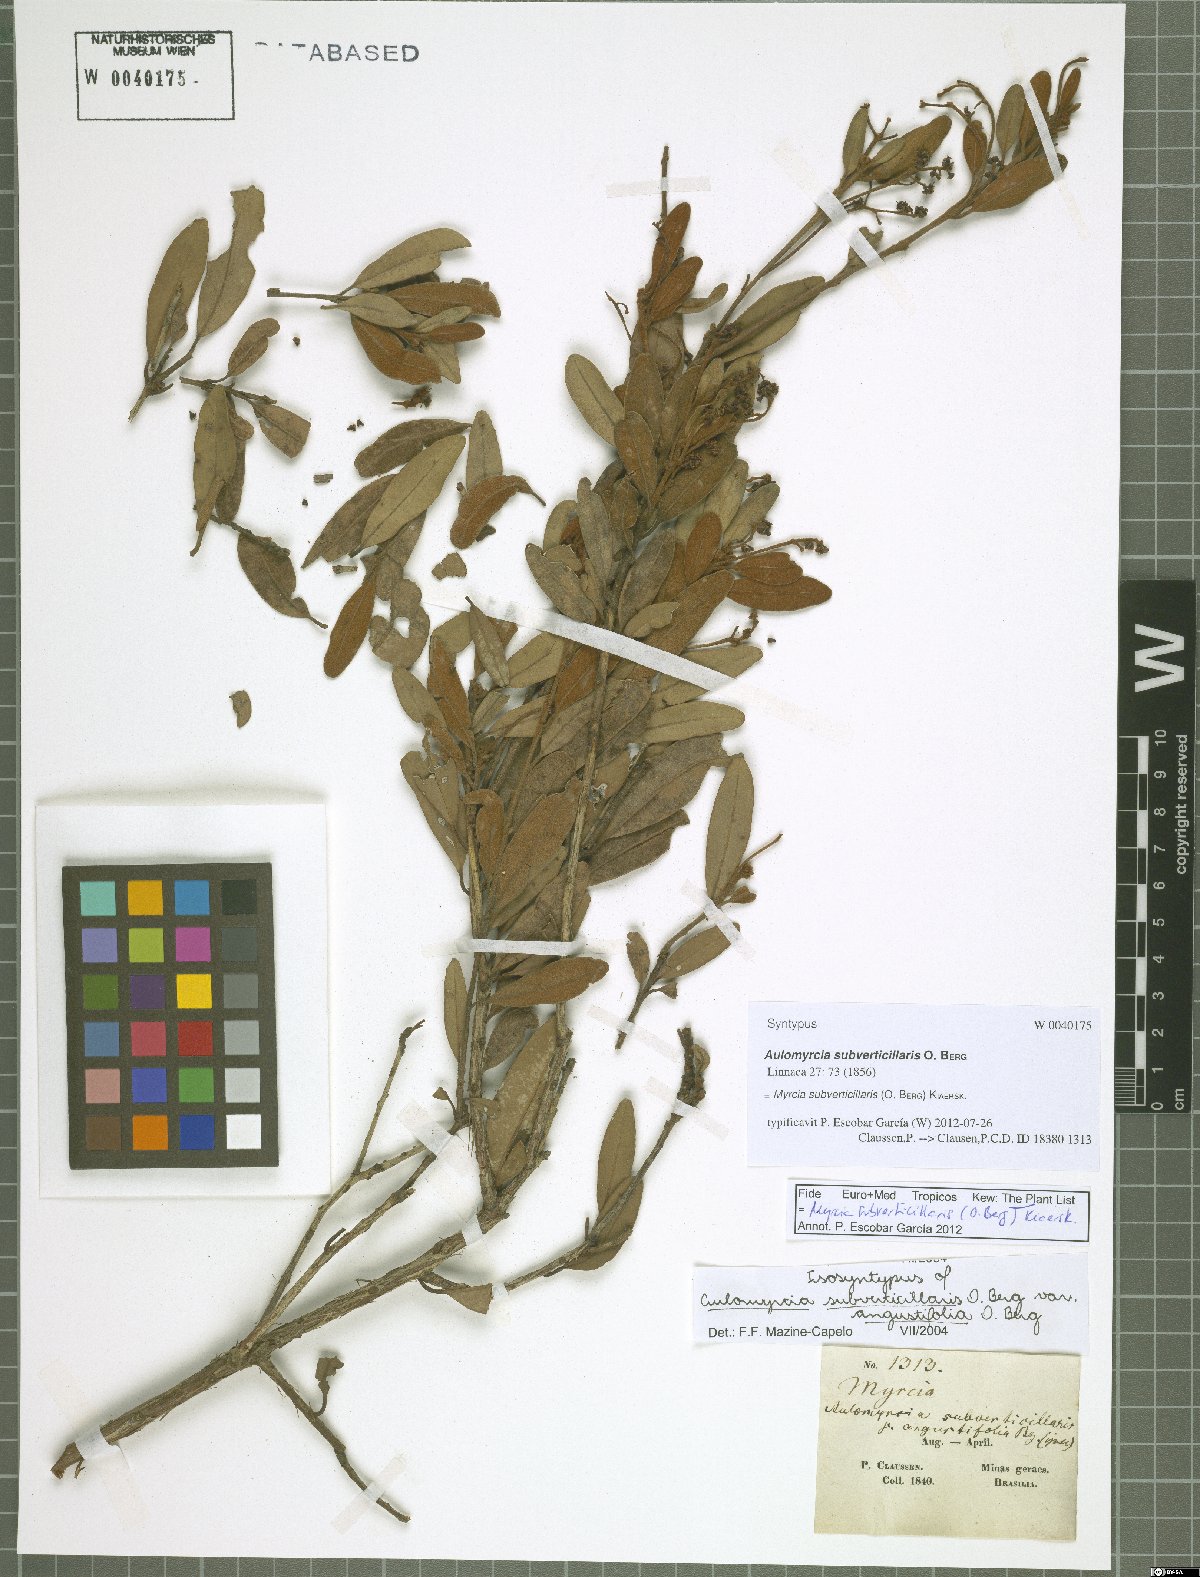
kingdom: Plantae
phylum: Tracheophyta
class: Magnoliopsida
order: Myrtales
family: Myrtaceae
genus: Myrcia
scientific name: Myrcia subverticillaris
